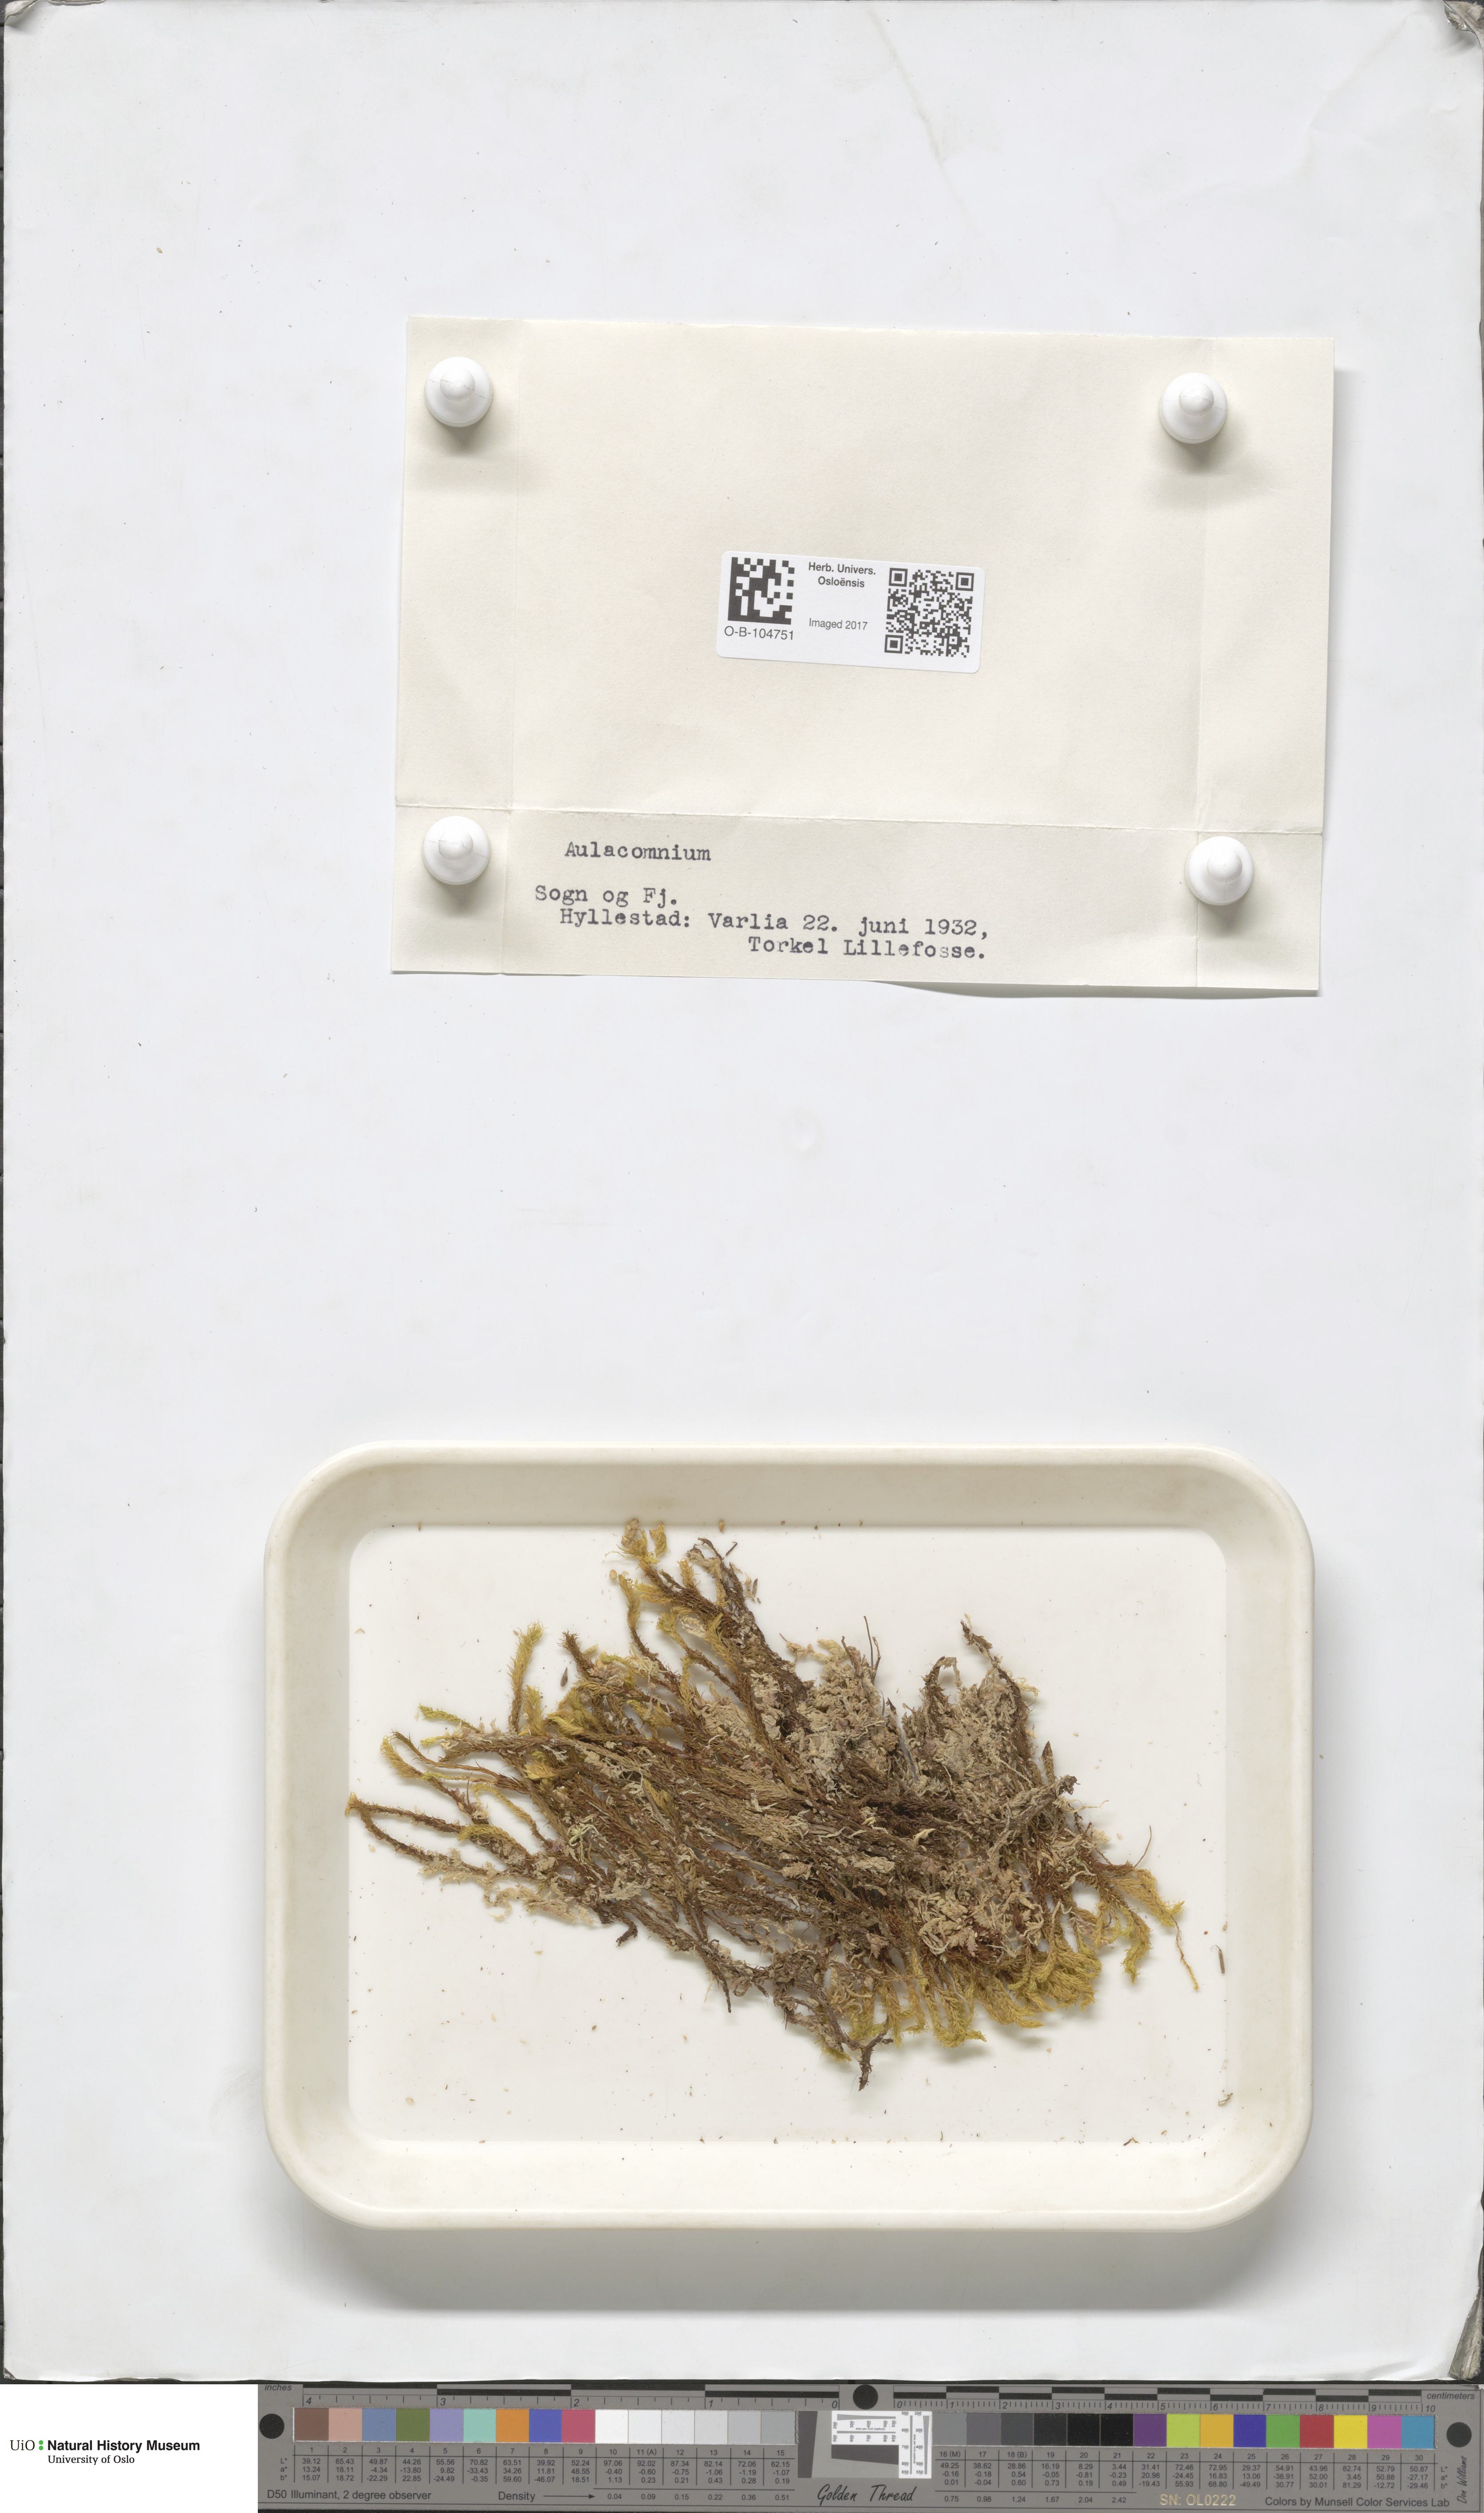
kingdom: Plantae
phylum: Bryophyta
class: Bryopsida
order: Aulacomniales
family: Aulacomniaceae
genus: Aulacomnium
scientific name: Aulacomnium
